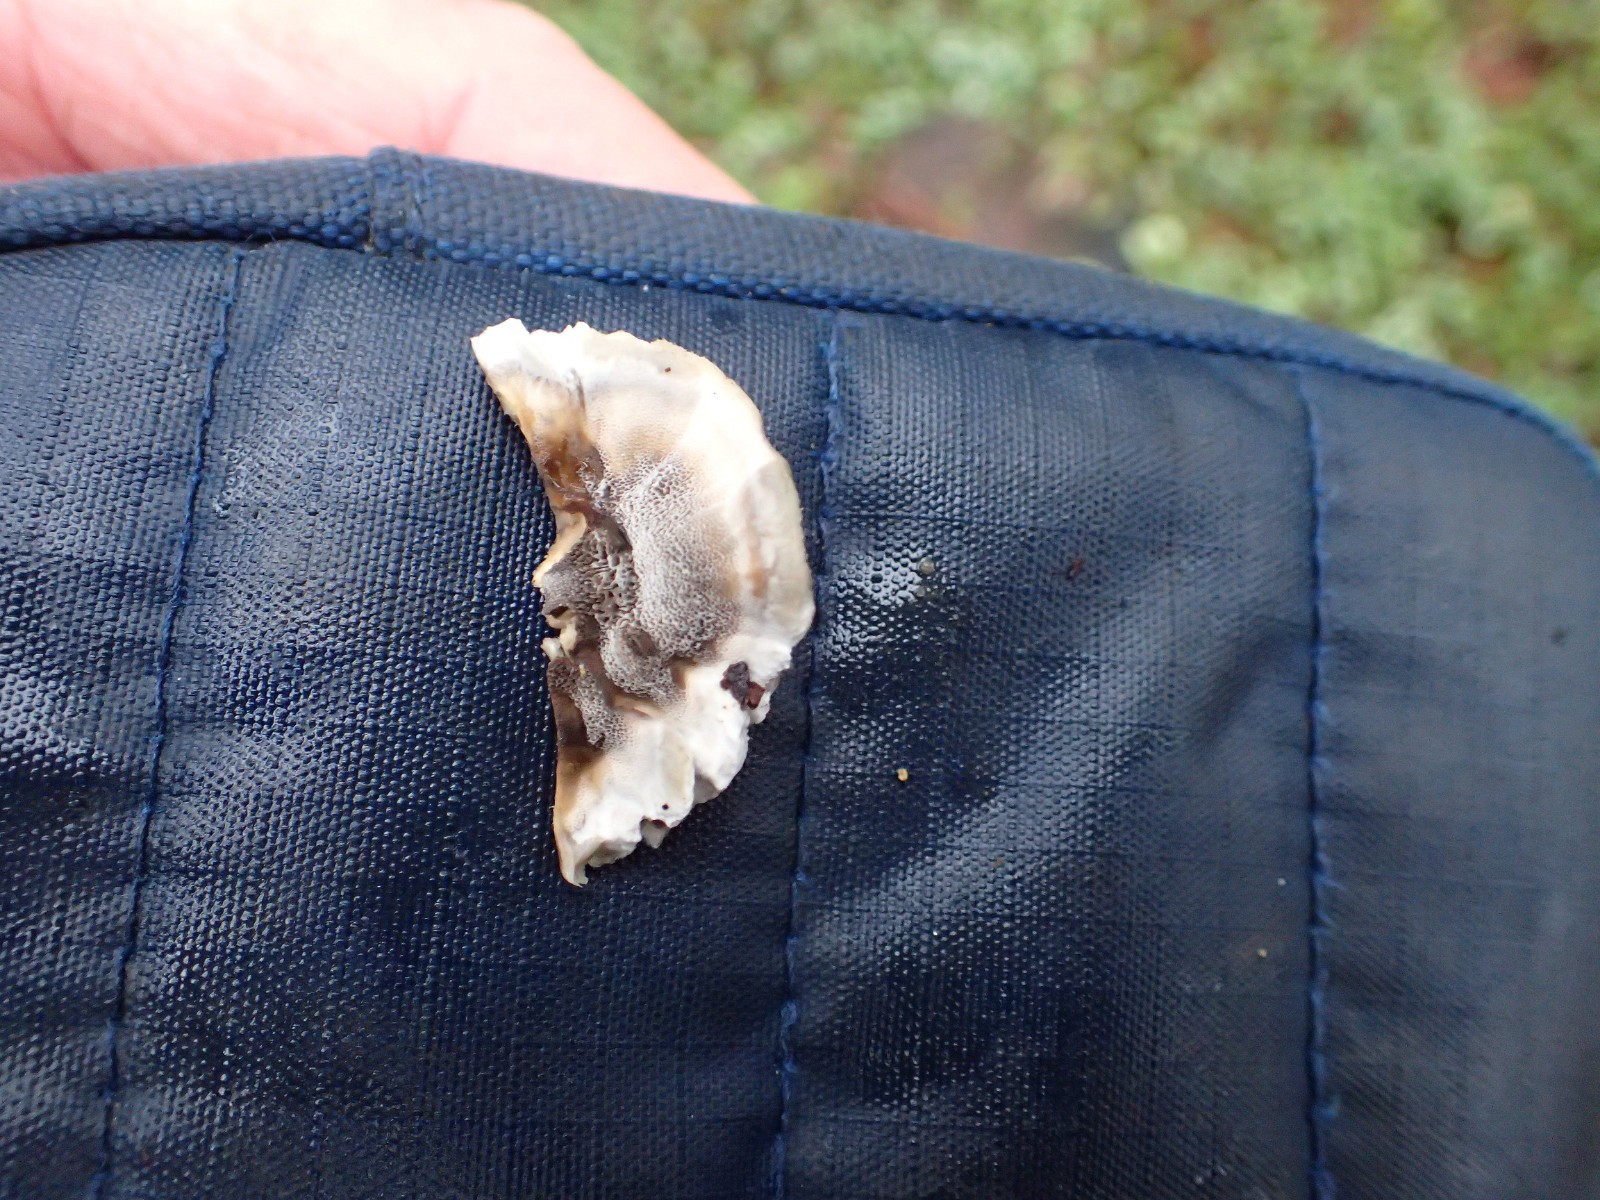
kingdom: Fungi
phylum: Basidiomycota
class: Agaricomycetes
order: Polyporales
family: Phanerochaetaceae
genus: Bjerkandera
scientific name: Bjerkandera adusta
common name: sveden sodporesvamp
